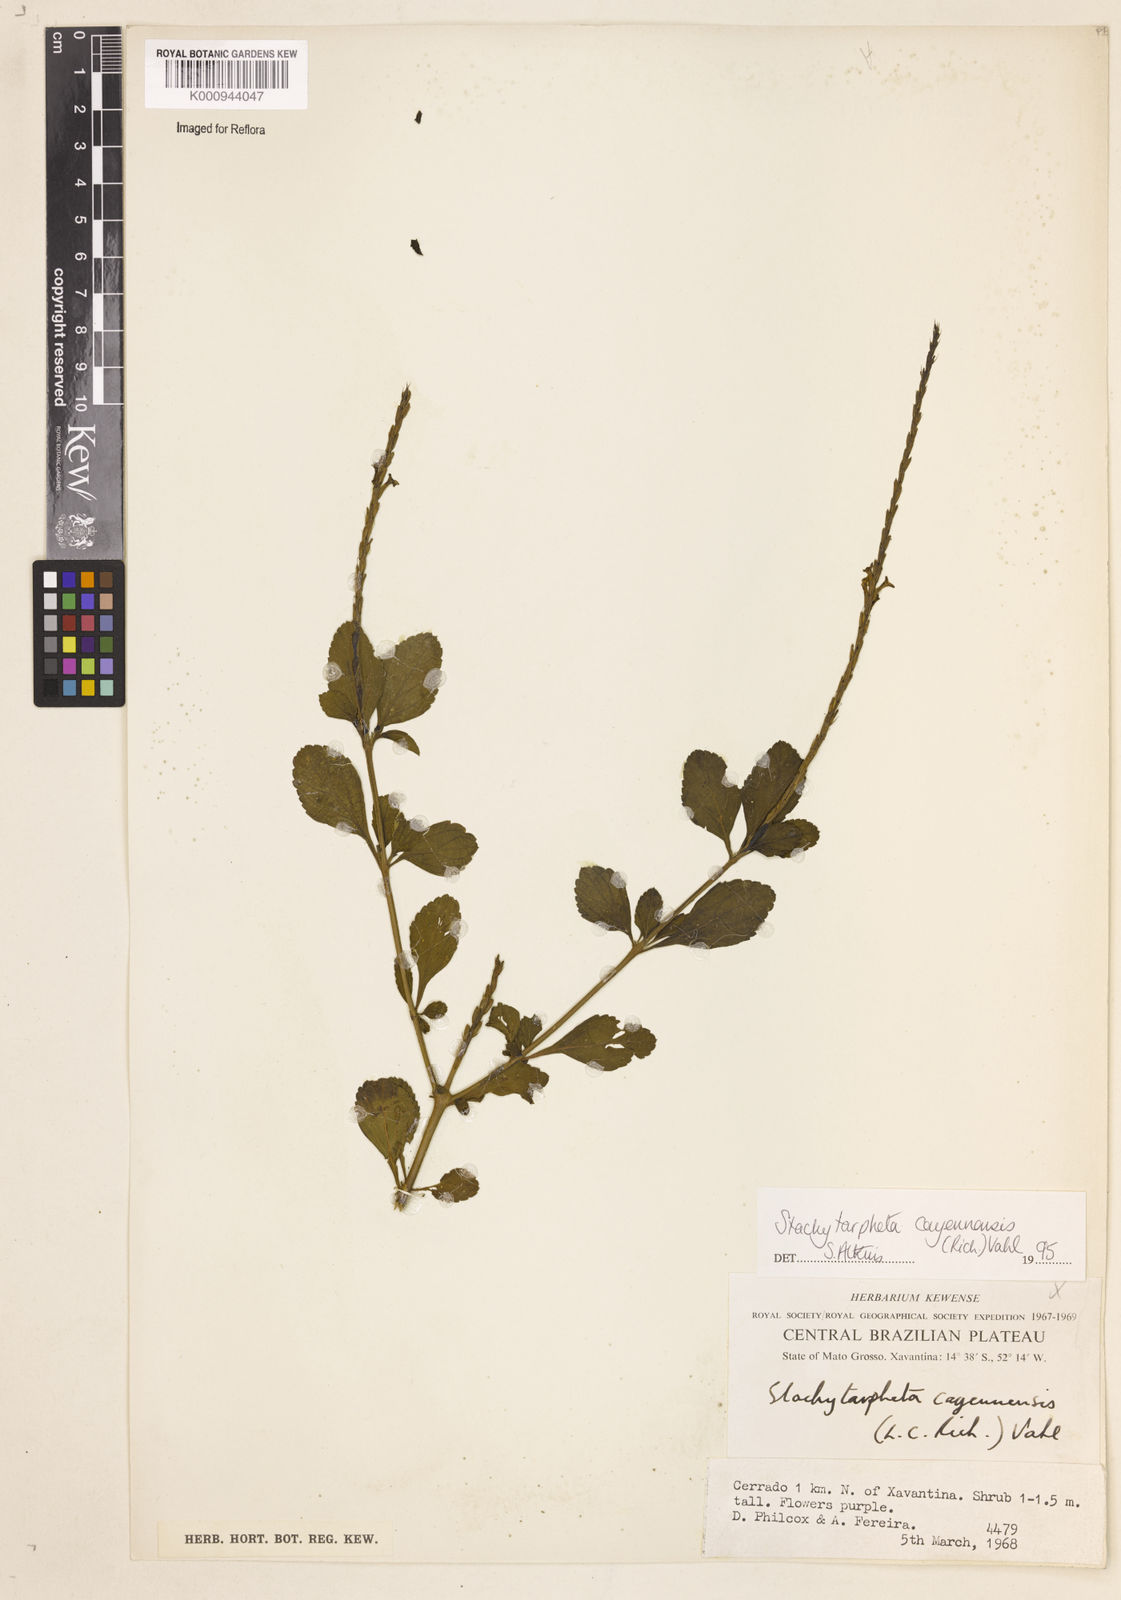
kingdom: Plantae
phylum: Tracheophyta
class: Magnoliopsida
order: Lamiales
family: Verbenaceae
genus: Aloysia
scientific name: Aloysia
